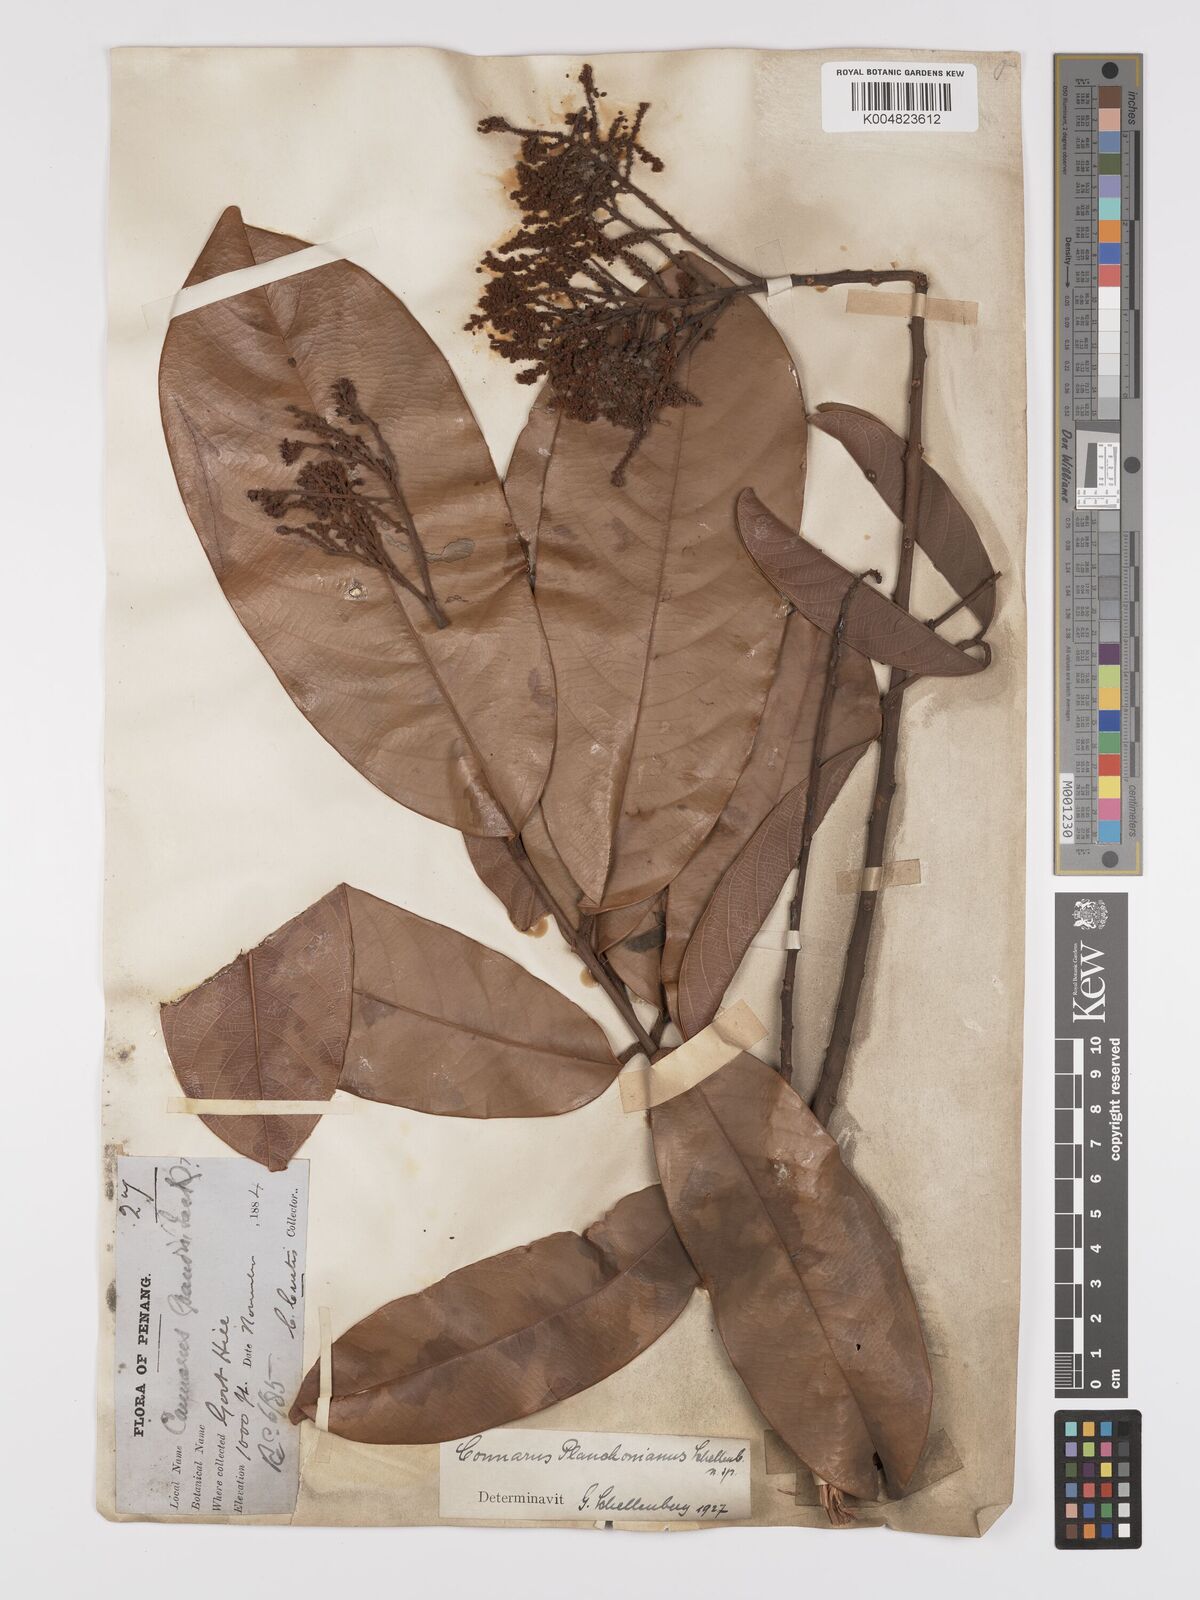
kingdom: Plantae
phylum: Tracheophyta
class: Magnoliopsida
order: Oxalidales
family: Connaraceae
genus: Connarus
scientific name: Connarus planchonianus
